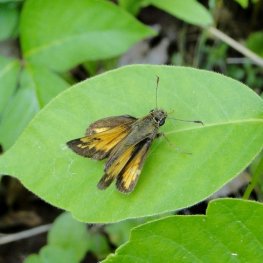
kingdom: Animalia
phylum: Arthropoda
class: Insecta
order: Lepidoptera
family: Hesperiidae
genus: Lon
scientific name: Lon hobomok
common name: Hobomok Skipper
